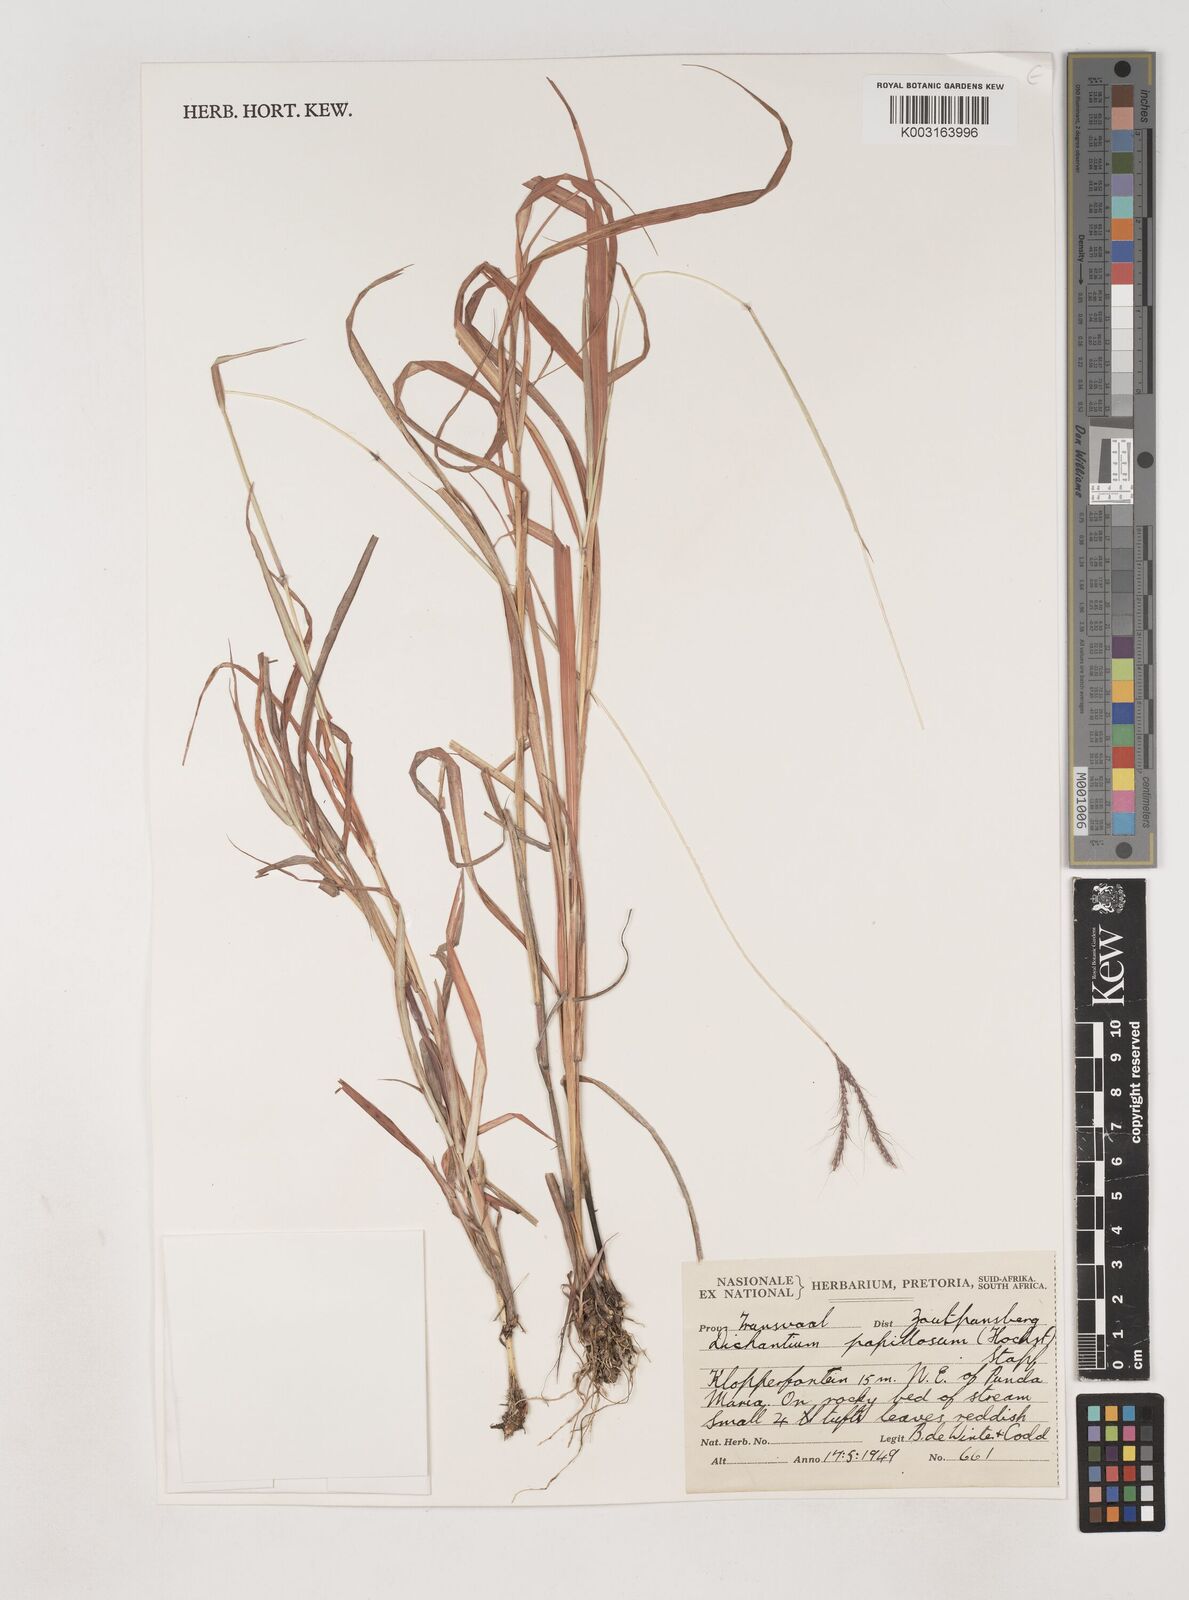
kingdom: Plantae
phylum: Tracheophyta
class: Liliopsida
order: Poales
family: Poaceae
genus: Dichanthium
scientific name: Dichanthium annulatum
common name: Kleberg's bluestem
